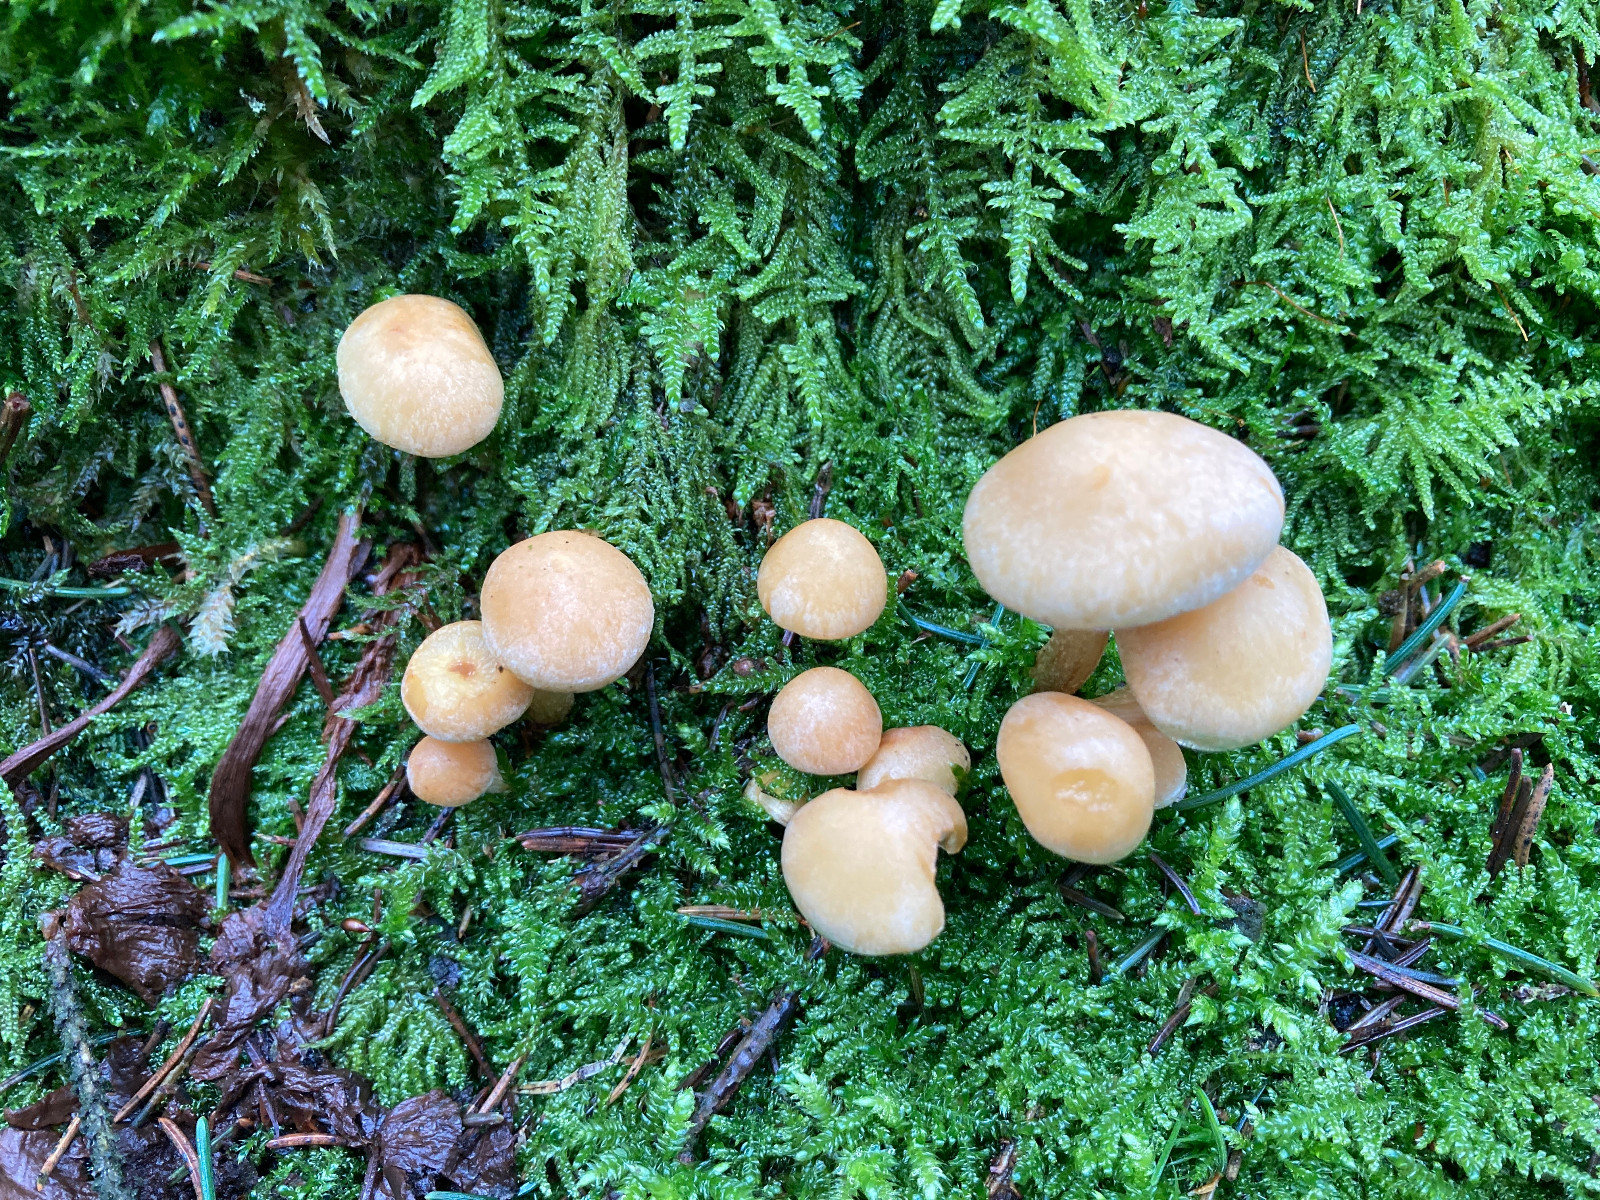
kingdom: Fungi
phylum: Basidiomycota
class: Agaricomycetes
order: Agaricales
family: Strophariaceae
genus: Hypholoma
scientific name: Hypholoma capnoides
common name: gran-svovlhat
